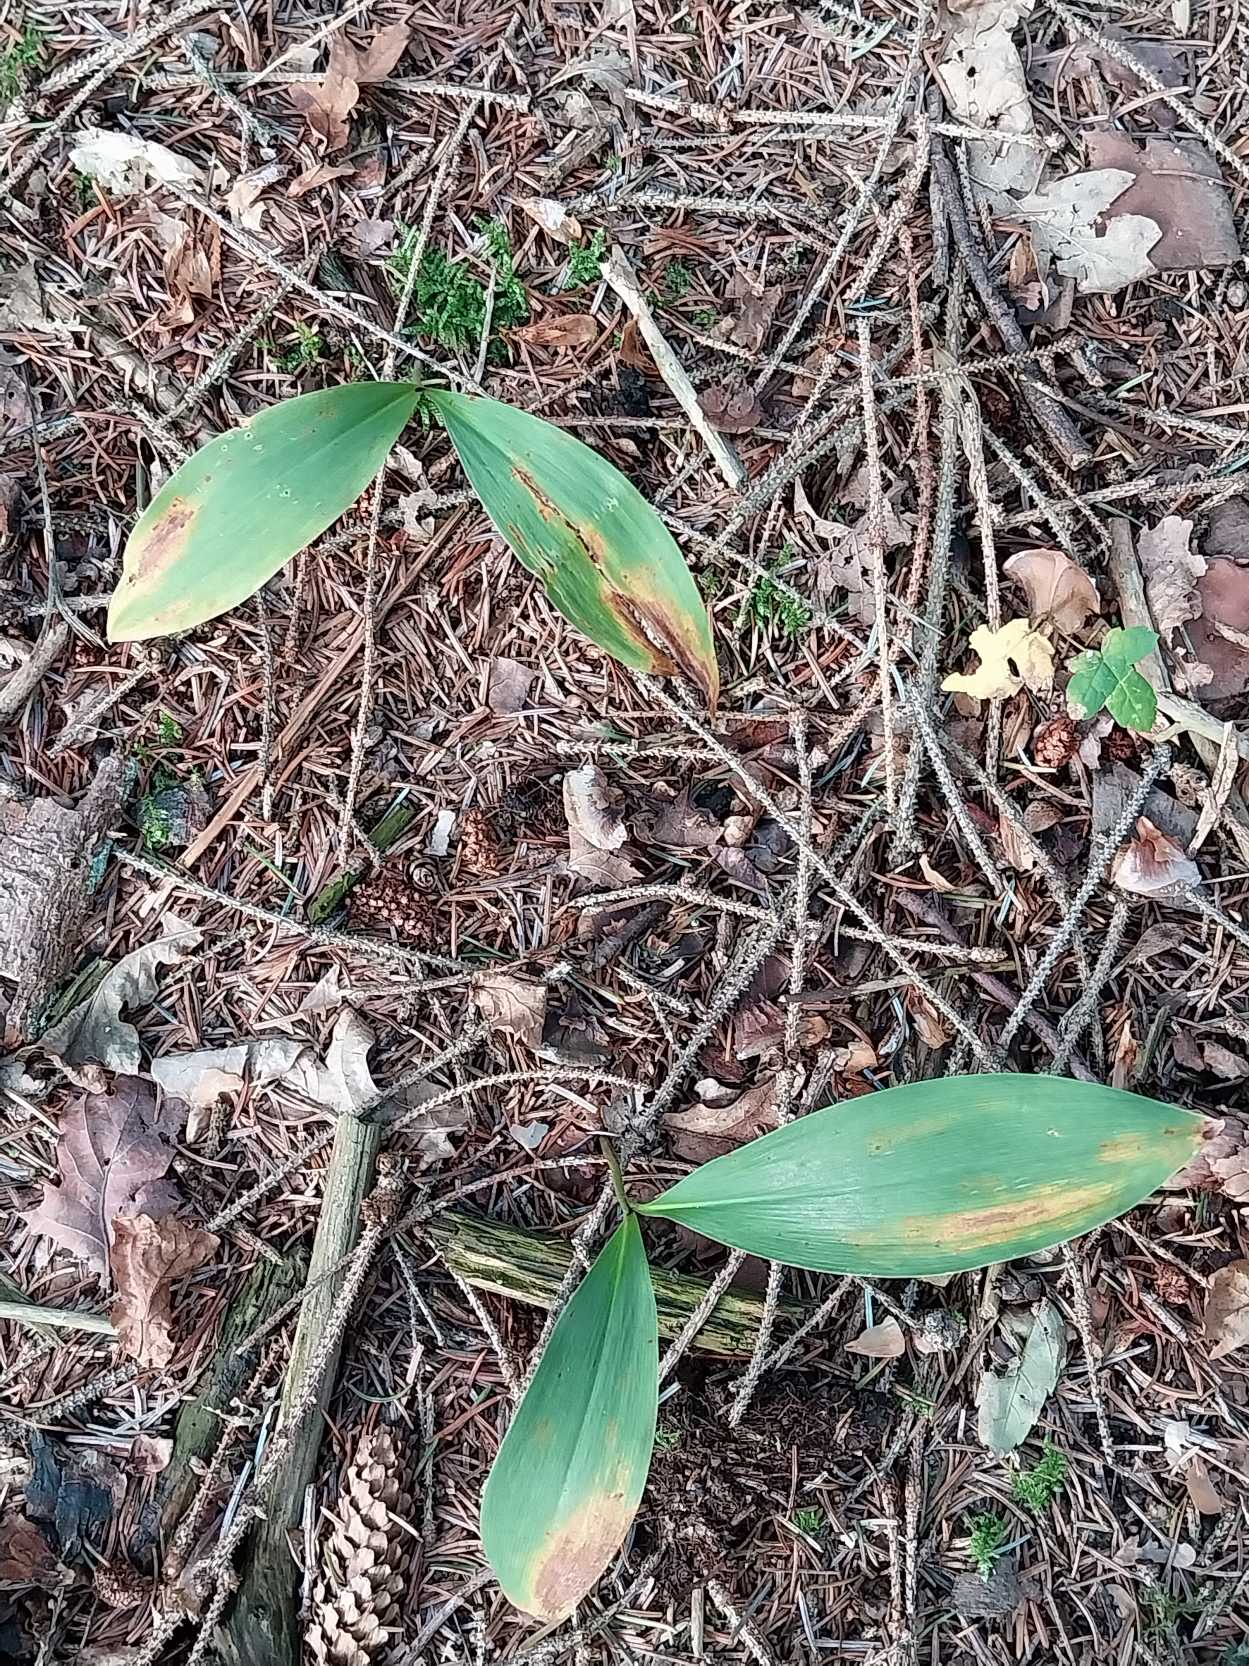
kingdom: Plantae
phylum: Tracheophyta
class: Liliopsida
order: Asparagales
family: Asparagaceae
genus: Convallaria
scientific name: Convallaria majalis
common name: Liljekonval
